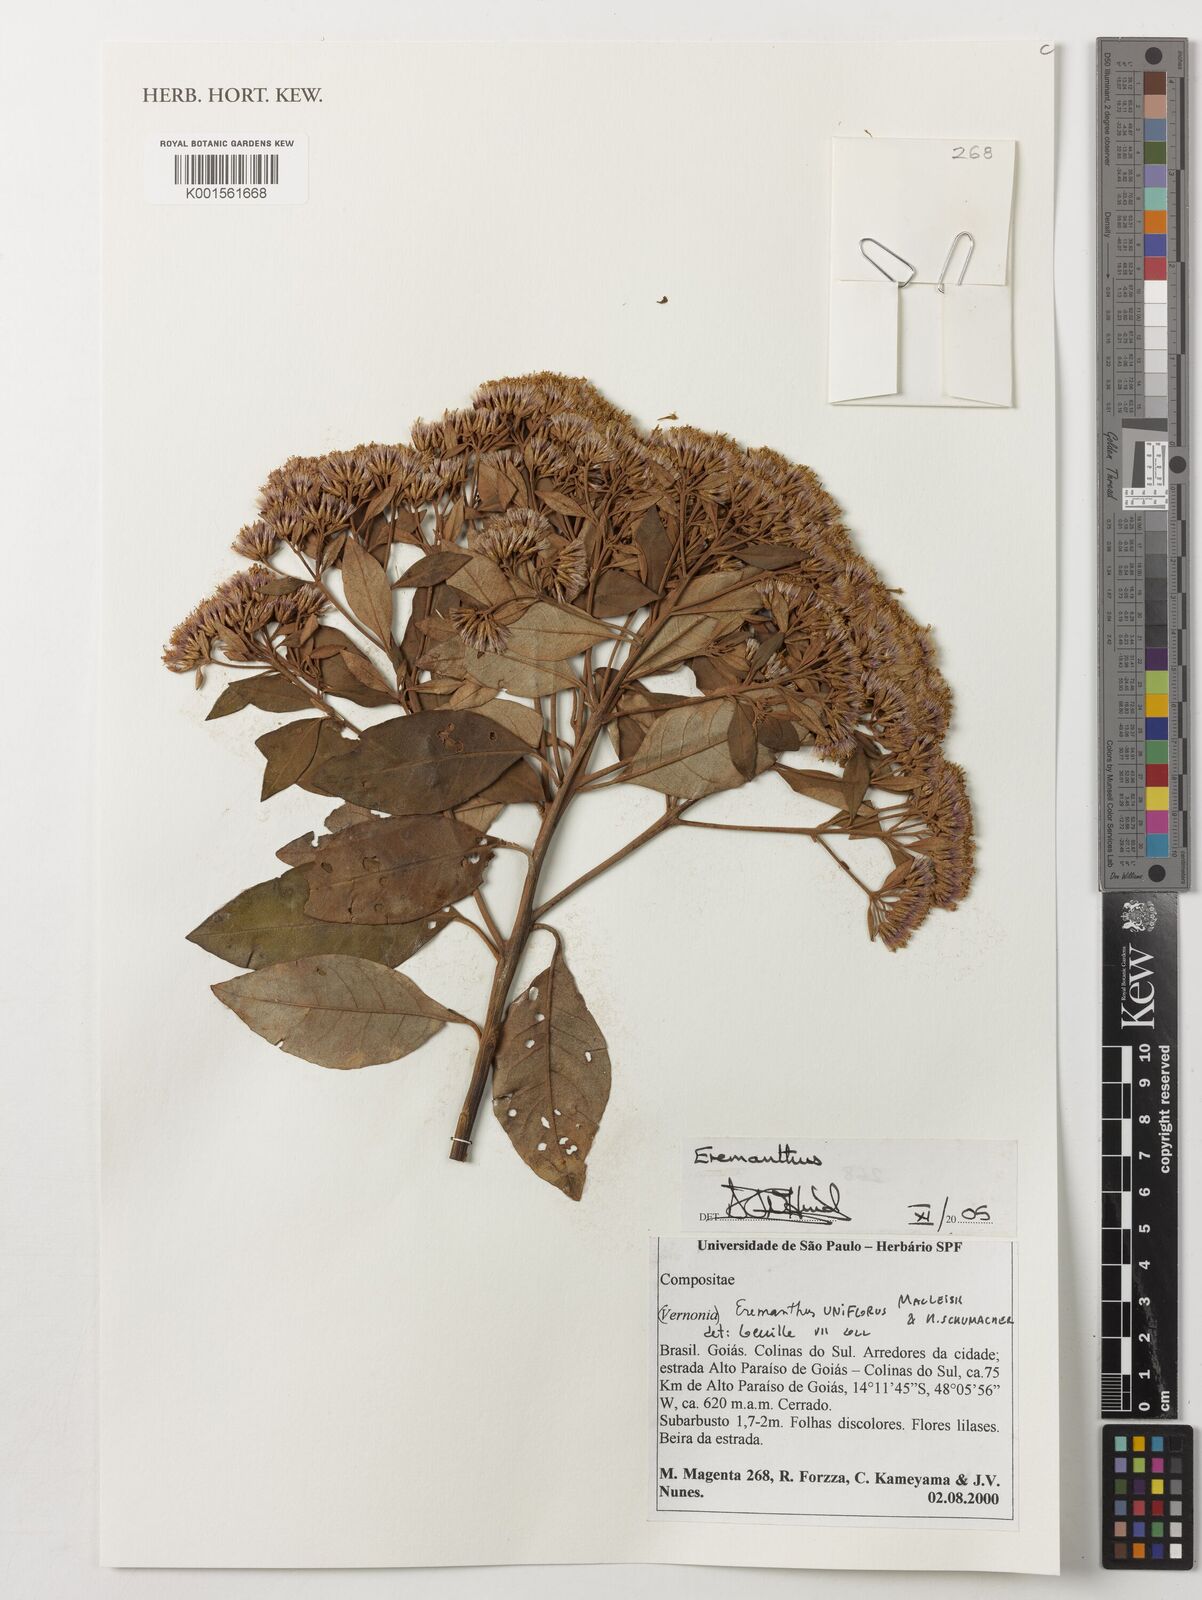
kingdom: Plantae
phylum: Tracheophyta
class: Magnoliopsida
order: Asterales
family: Asteraceae
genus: Eremanthus
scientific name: Eremanthus
